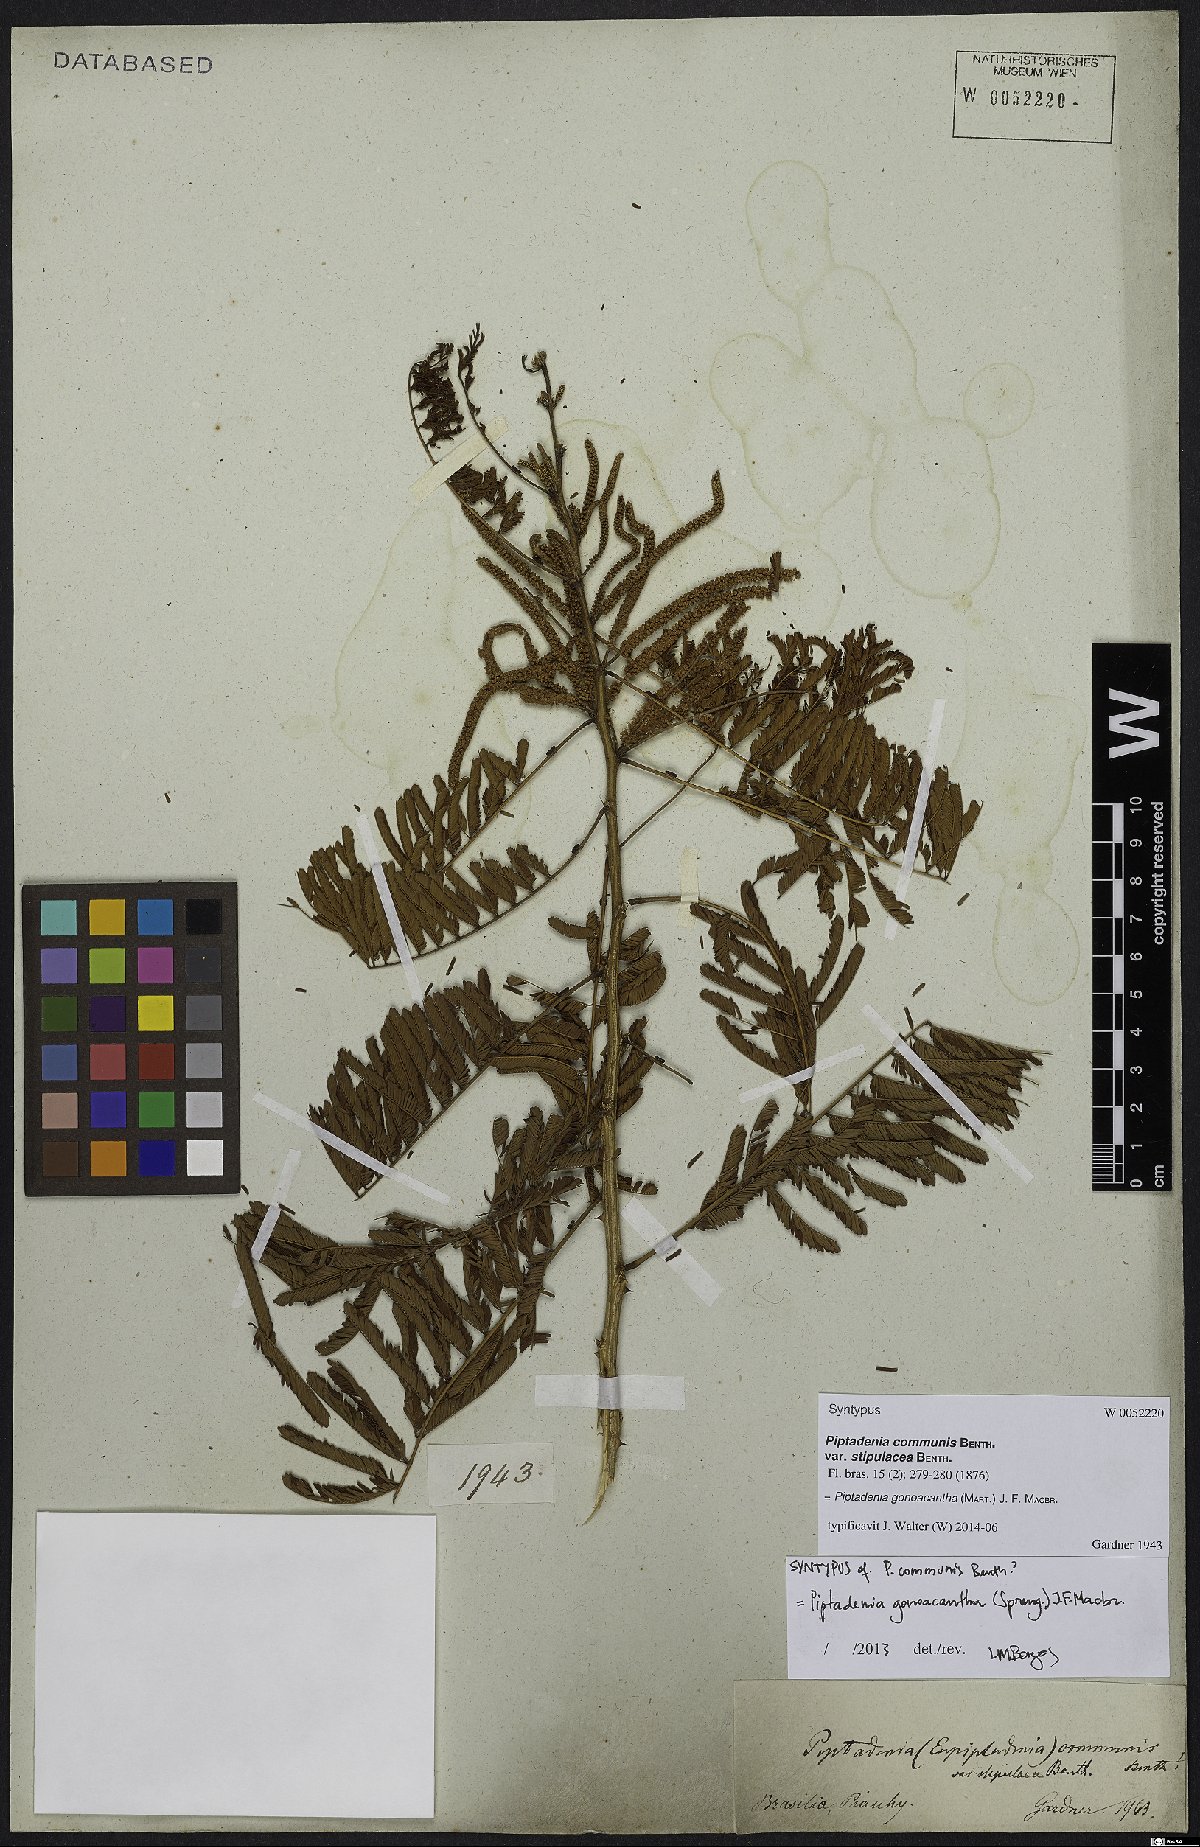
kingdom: Plantae
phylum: Tracheophyta
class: Magnoliopsida
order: Fabales
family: Fabaceae
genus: Piptadenia
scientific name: Piptadenia gonoacantha
